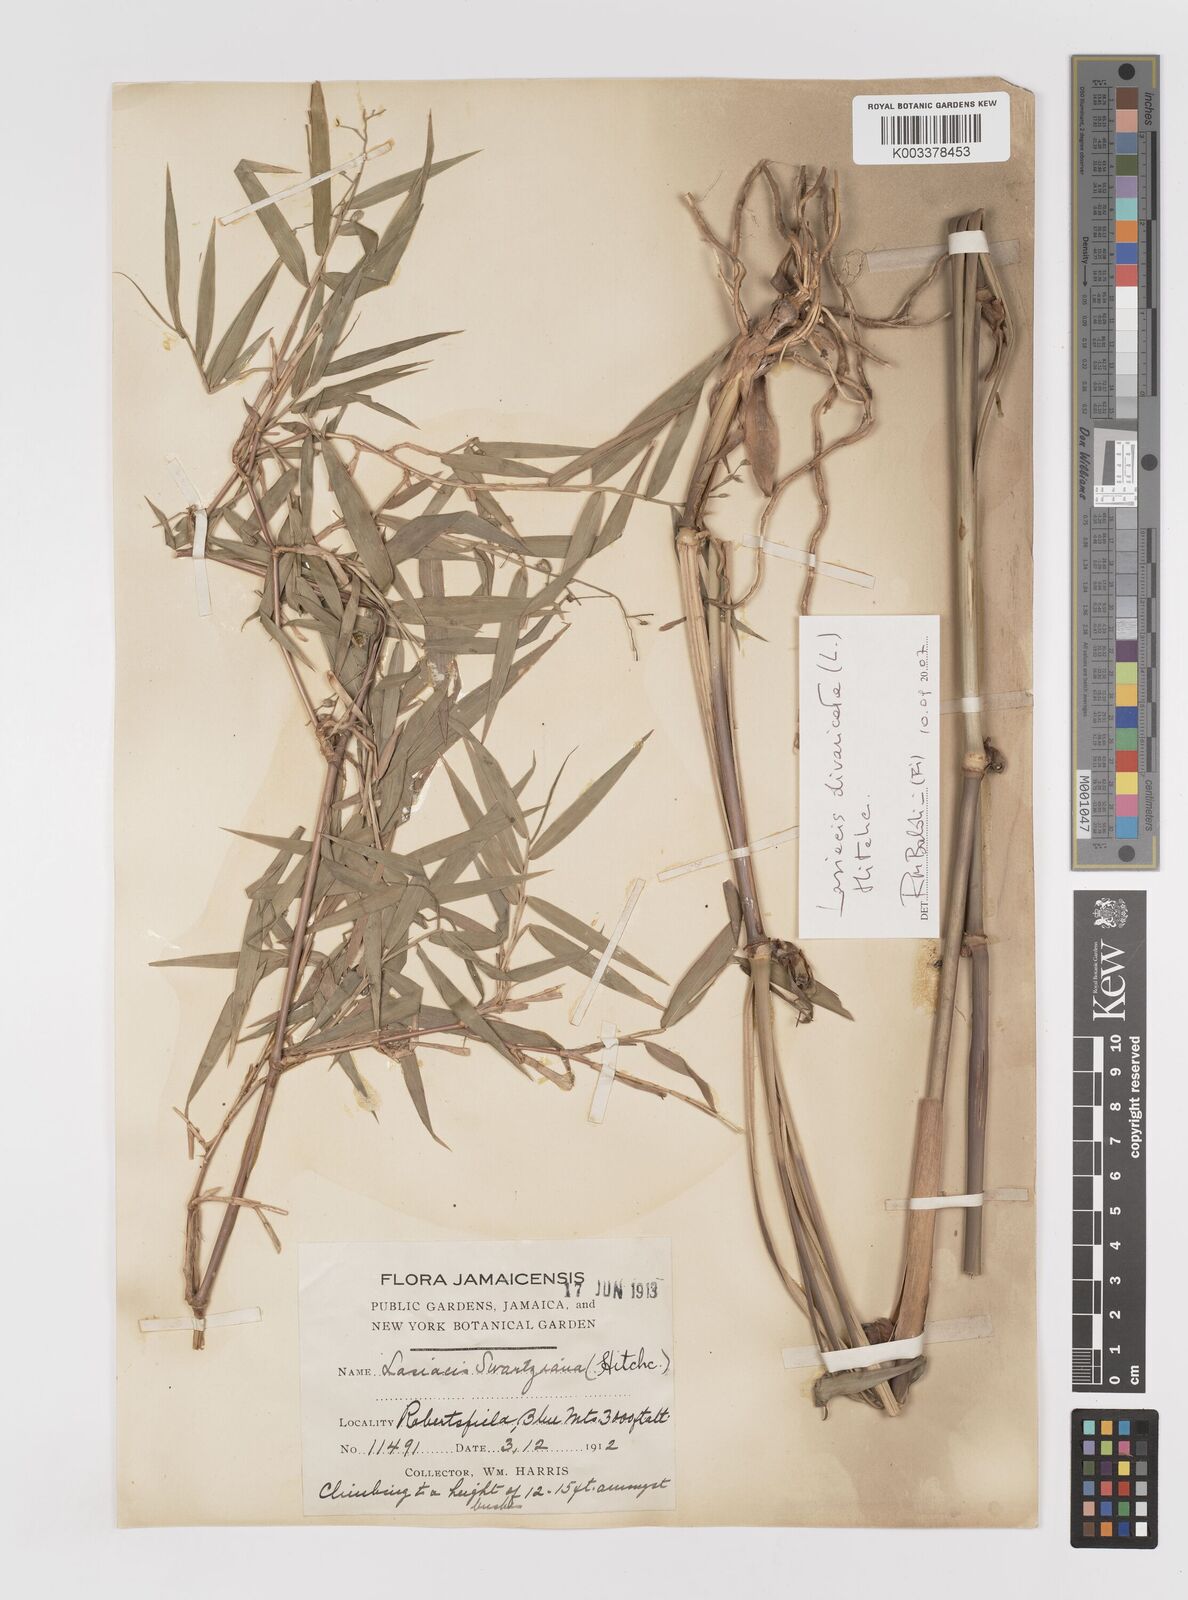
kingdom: Plantae
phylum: Tracheophyta
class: Liliopsida
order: Poales
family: Poaceae
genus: Lasiacis
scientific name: Lasiacis divaricata
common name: Smallcane
